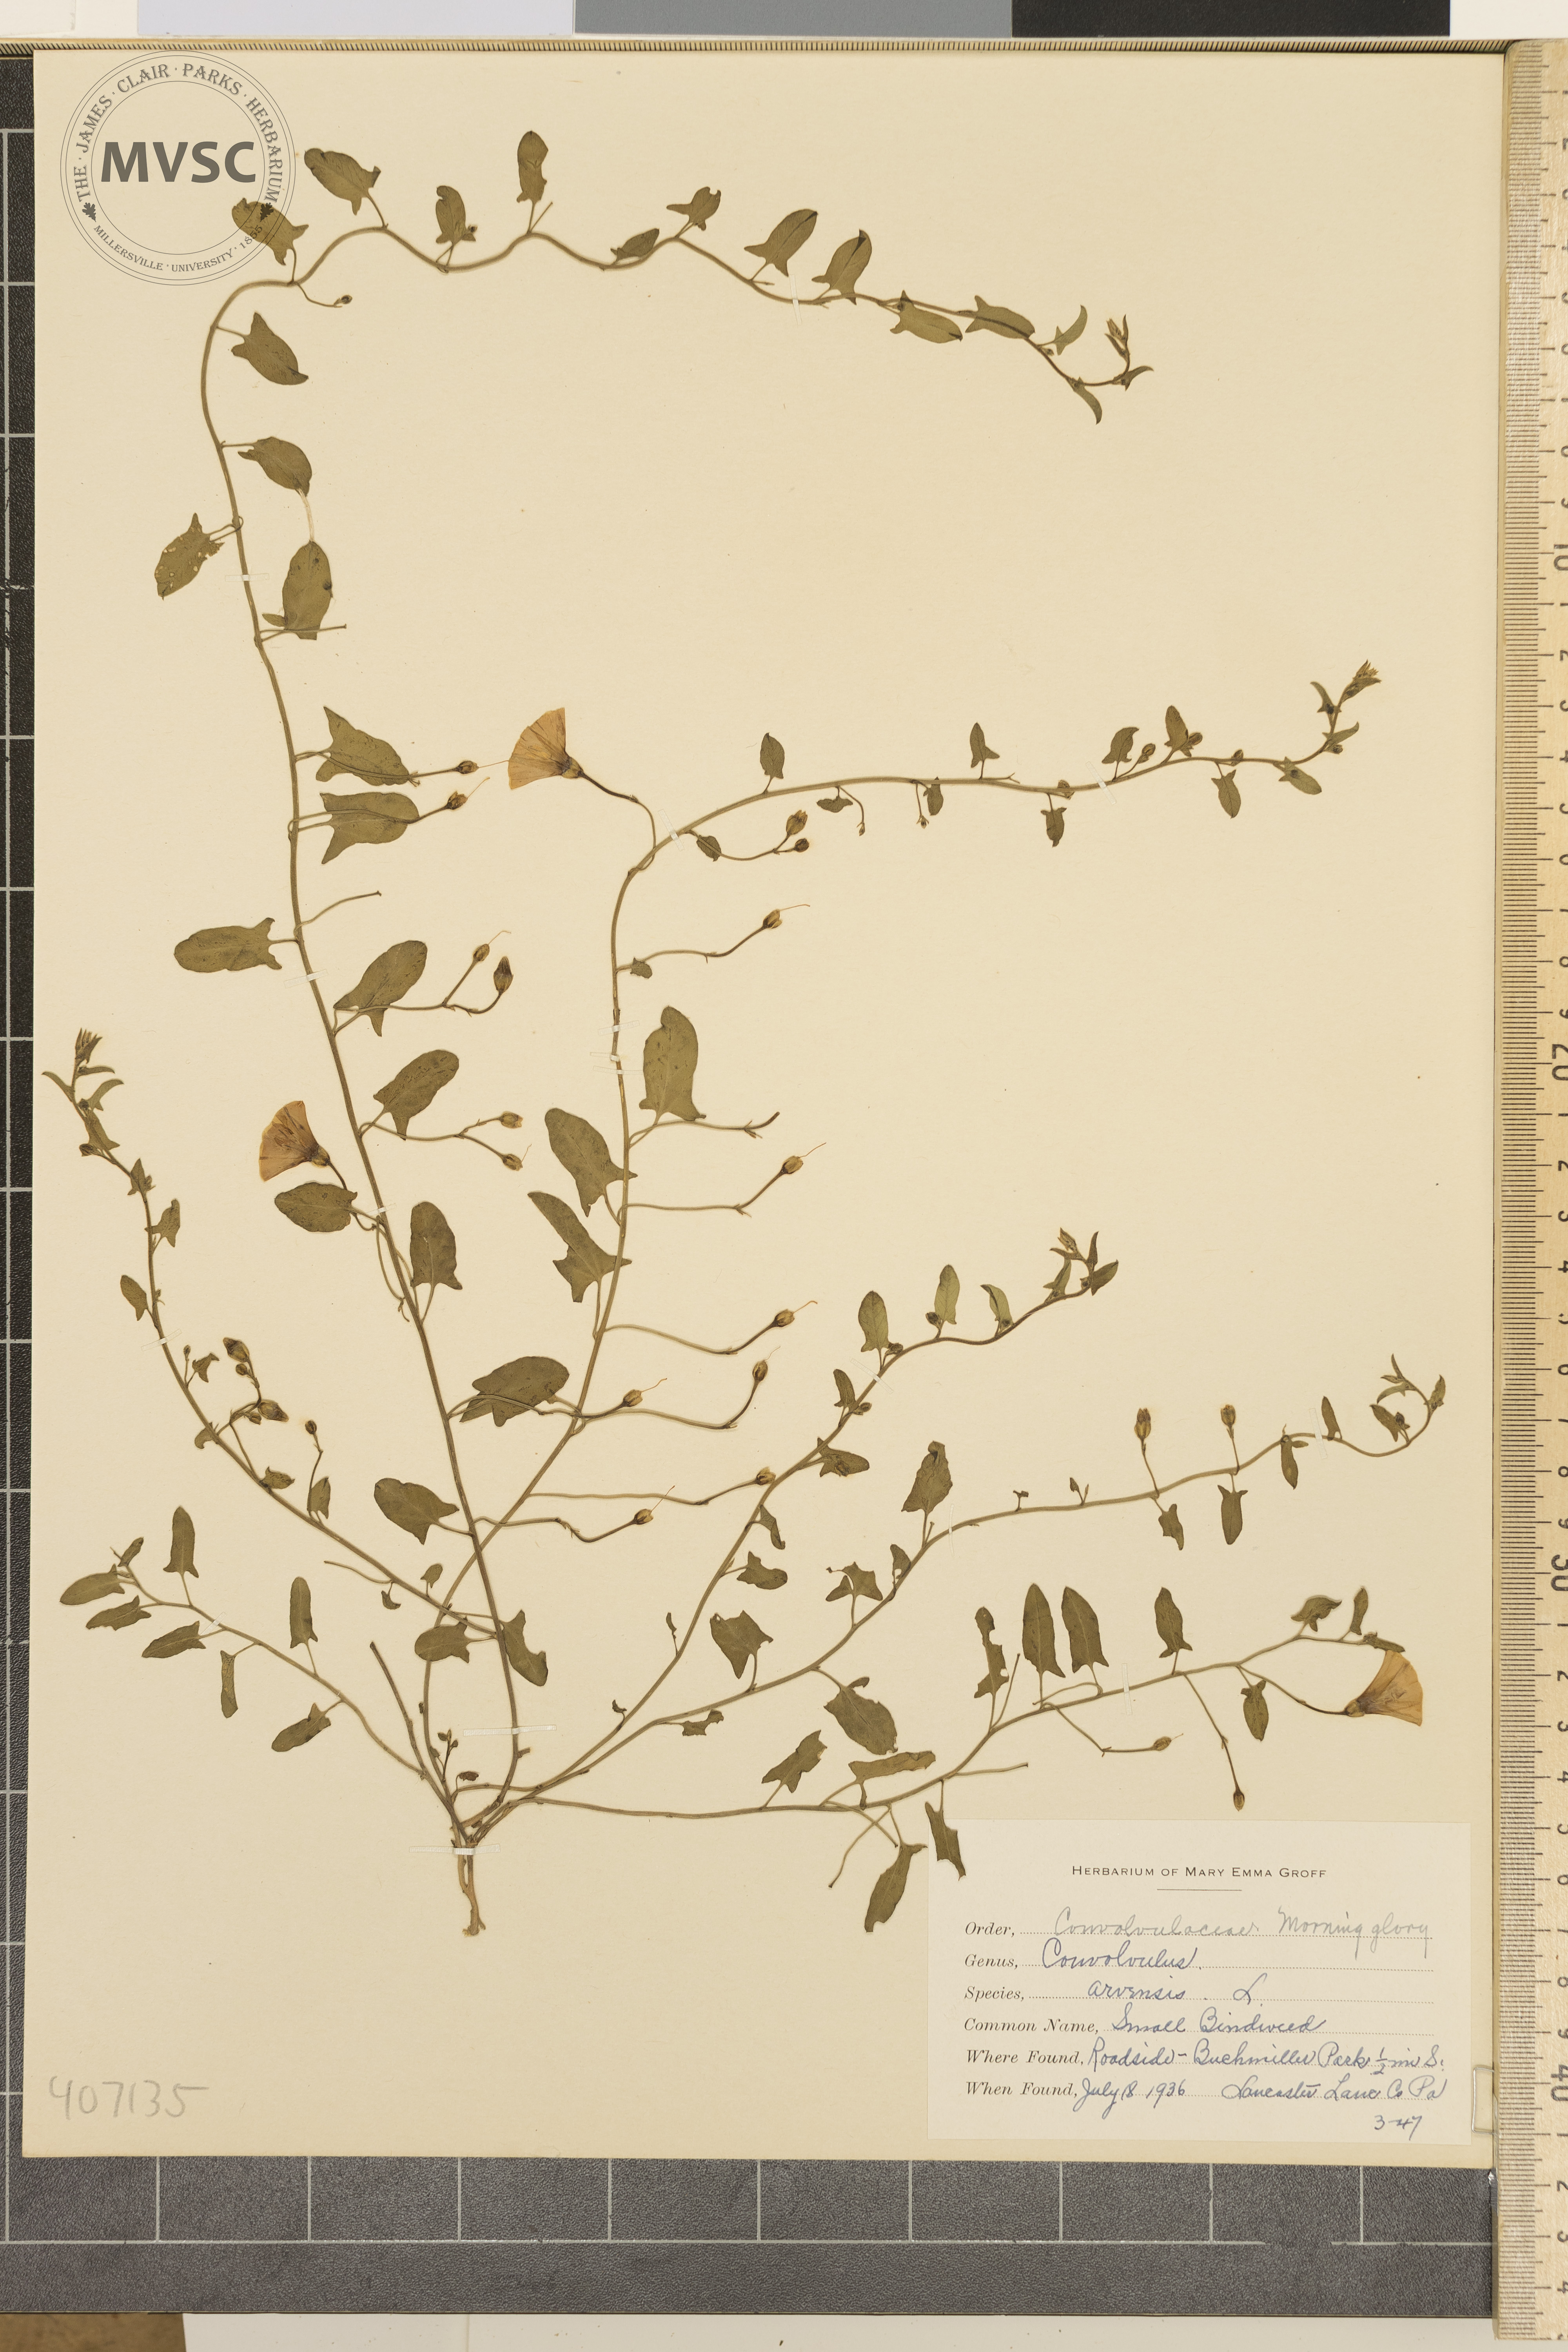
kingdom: Plantae
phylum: Tracheophyta
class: Magnoliopsida
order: Solanales
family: Convolvulaceae
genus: Convolvulus
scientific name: Convolvulus arvensis
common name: Small Bindweed
